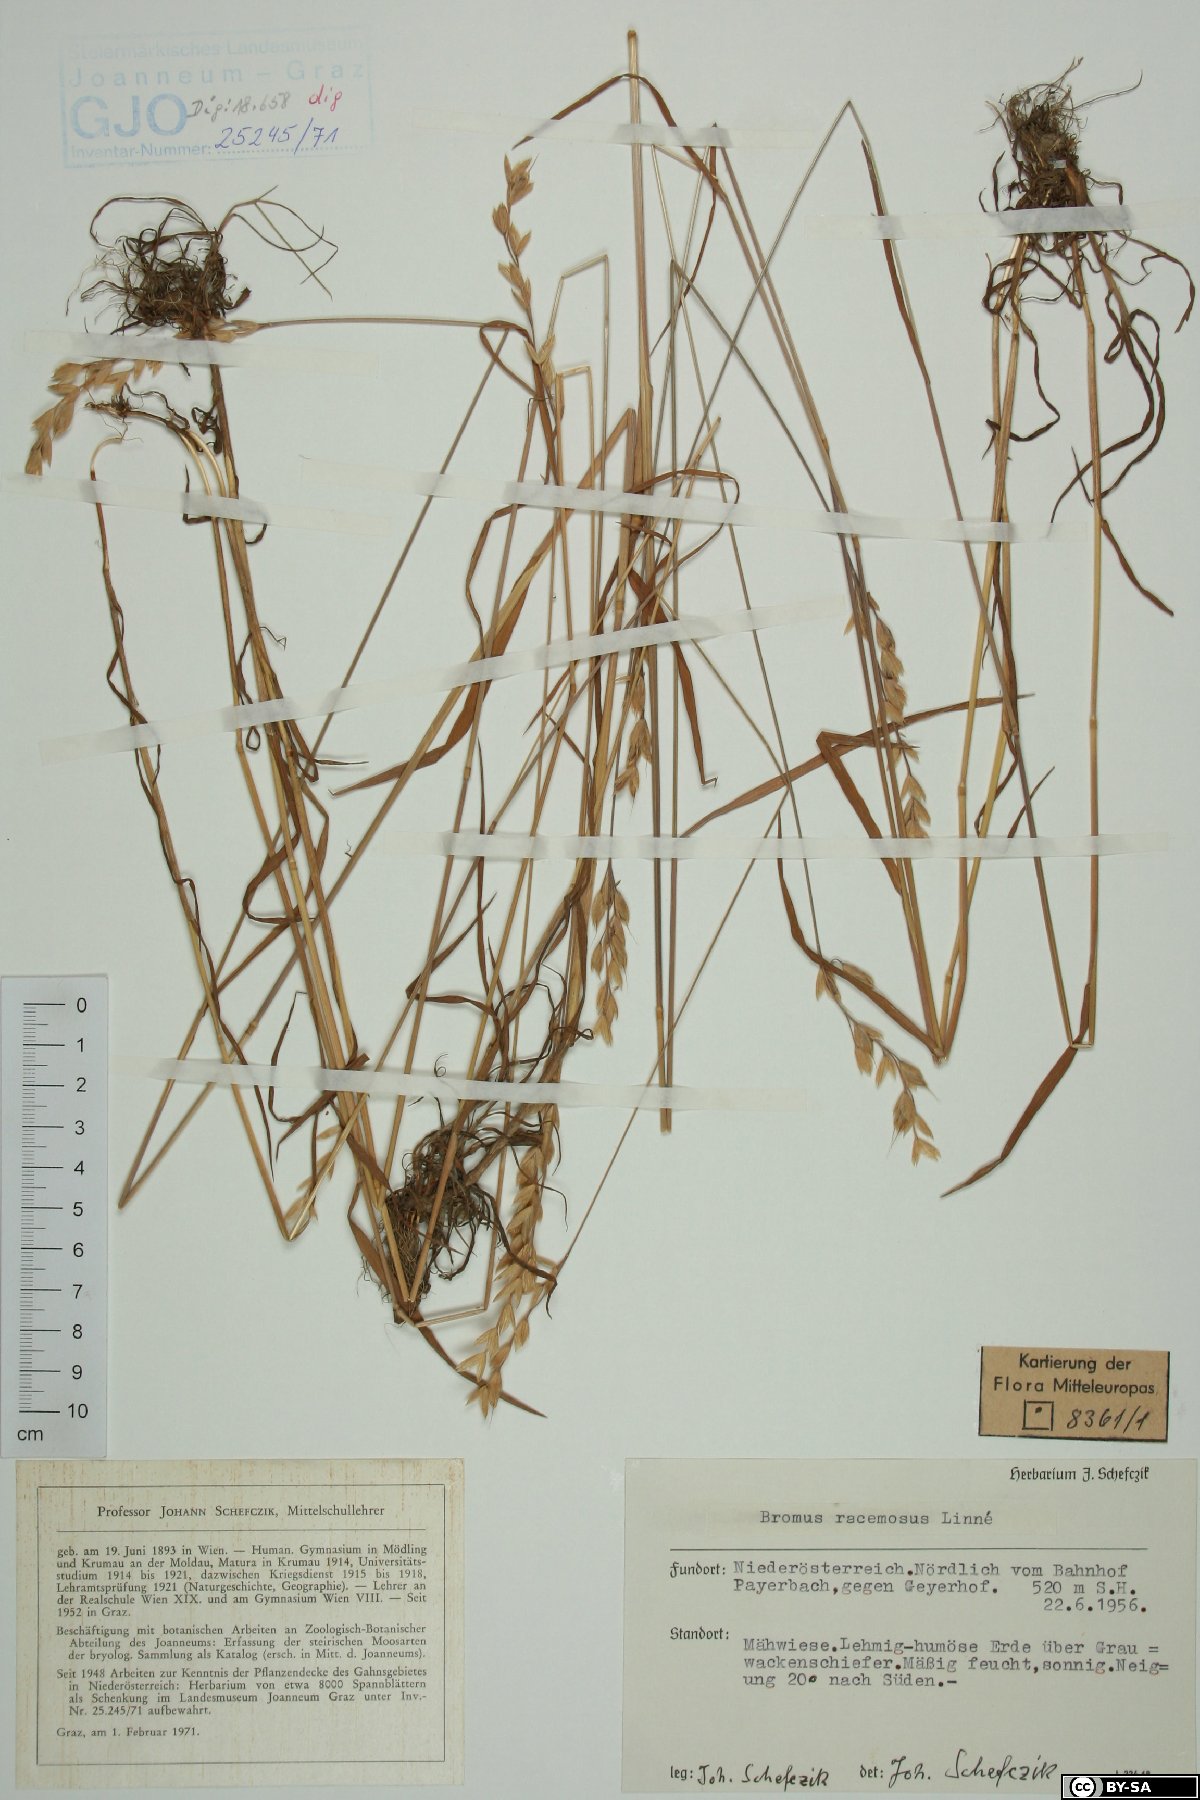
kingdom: Plantae
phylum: Tracheophyta
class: Liliopsida
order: Poales
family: Poaceae
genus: Bromus
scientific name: Bromus racemosus
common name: Bald brome
